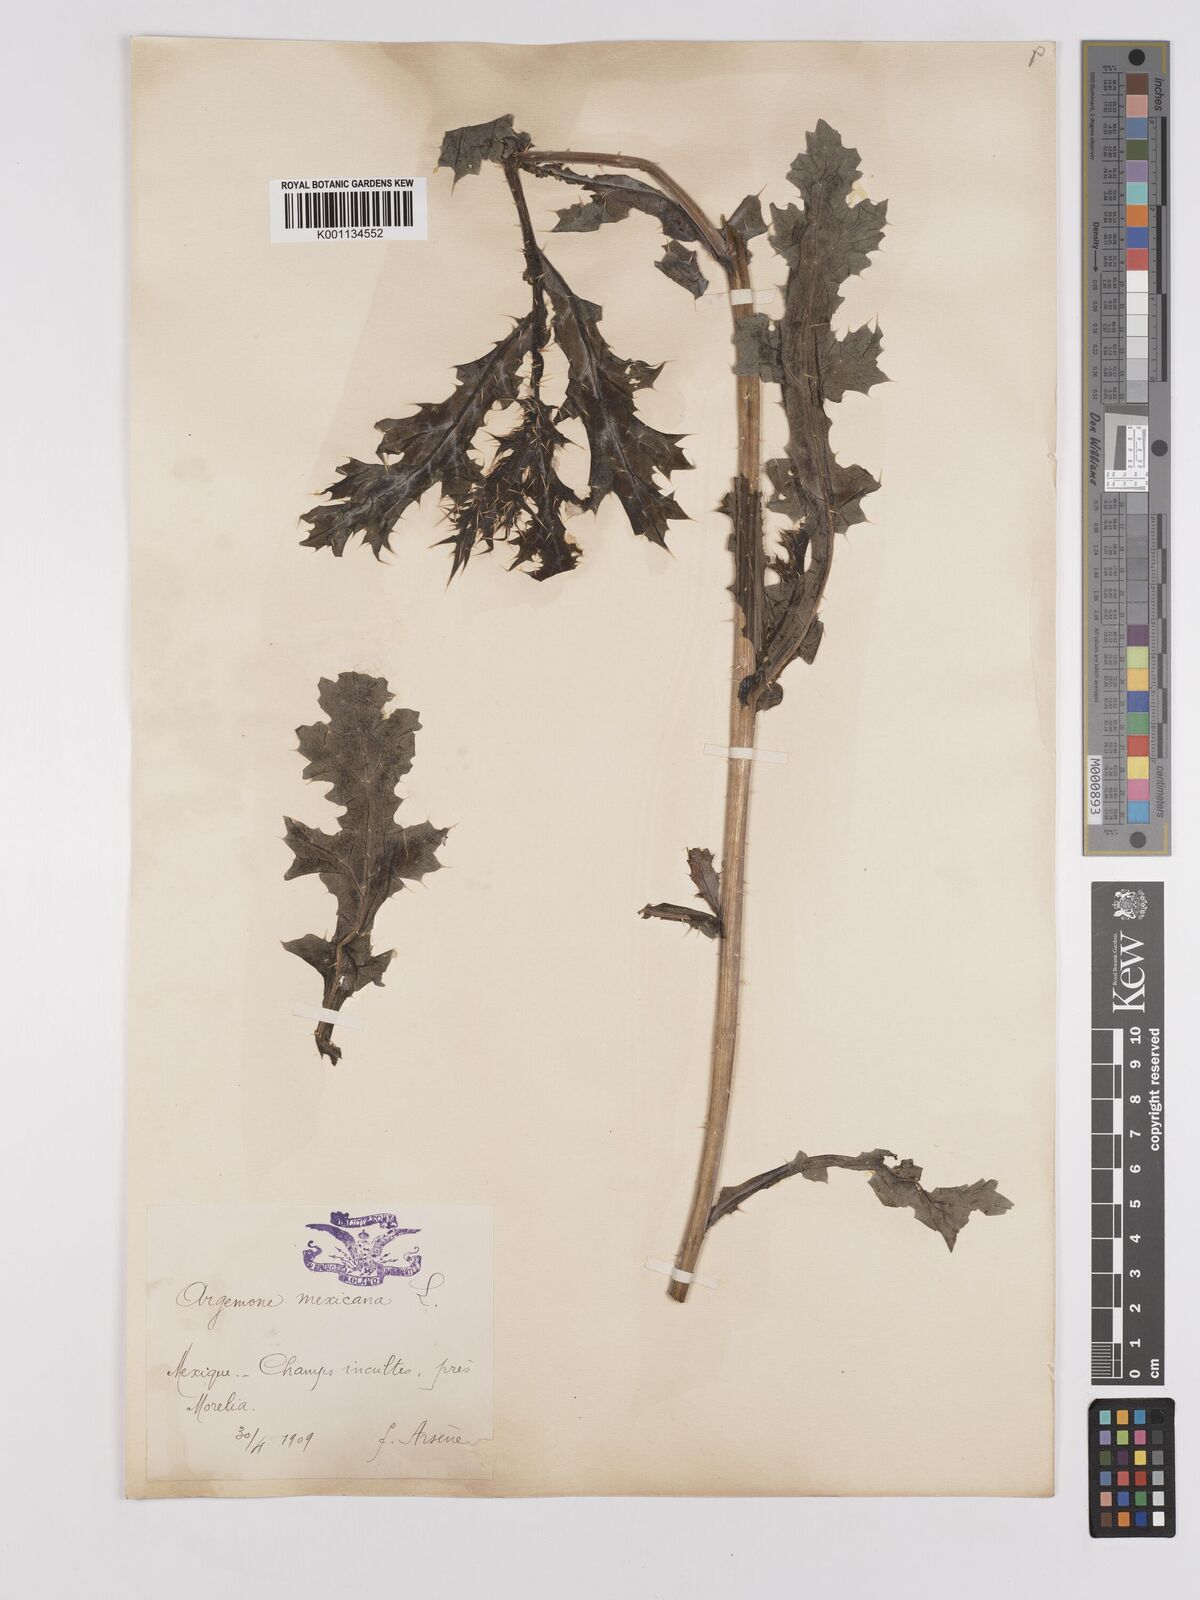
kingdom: Plantae
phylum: Tracheophyta
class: Magnoliopsida
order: Ranunculales
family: Papaveraceae
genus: Argemone
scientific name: Argemone mexicana
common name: Mexican poppy
